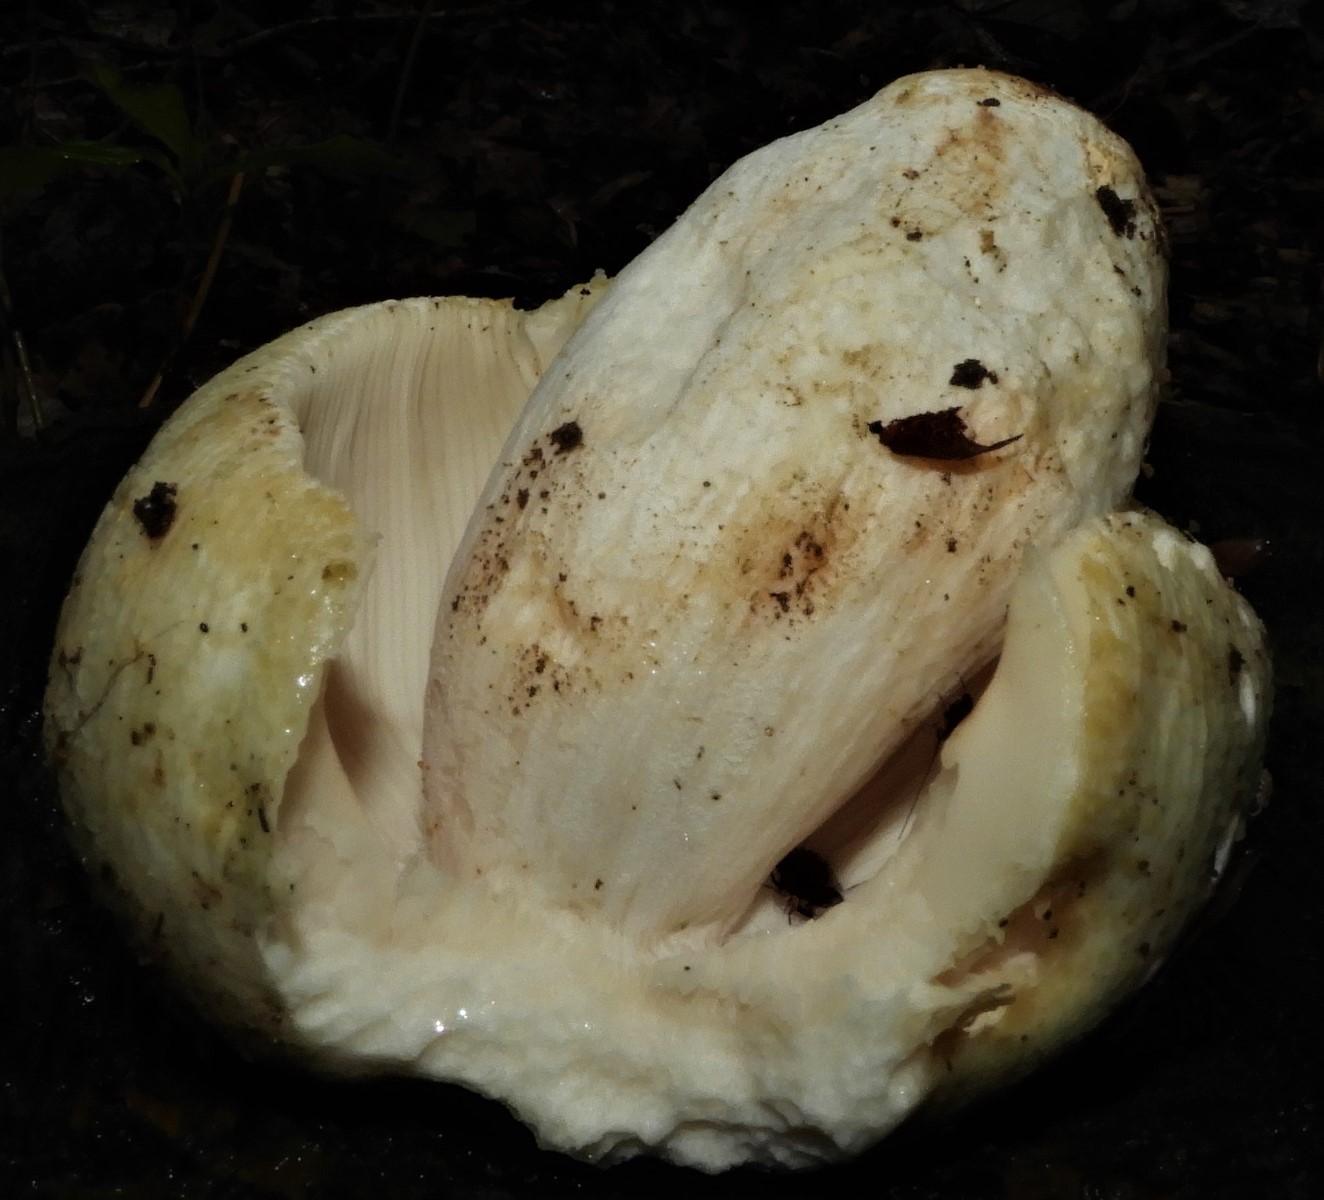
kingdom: Fungi
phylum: Basidiomycota
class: Agaricomycetes
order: Russulales
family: Russulaceae
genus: Russula
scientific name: Russula virescens
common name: spanskgrøn skørhat
